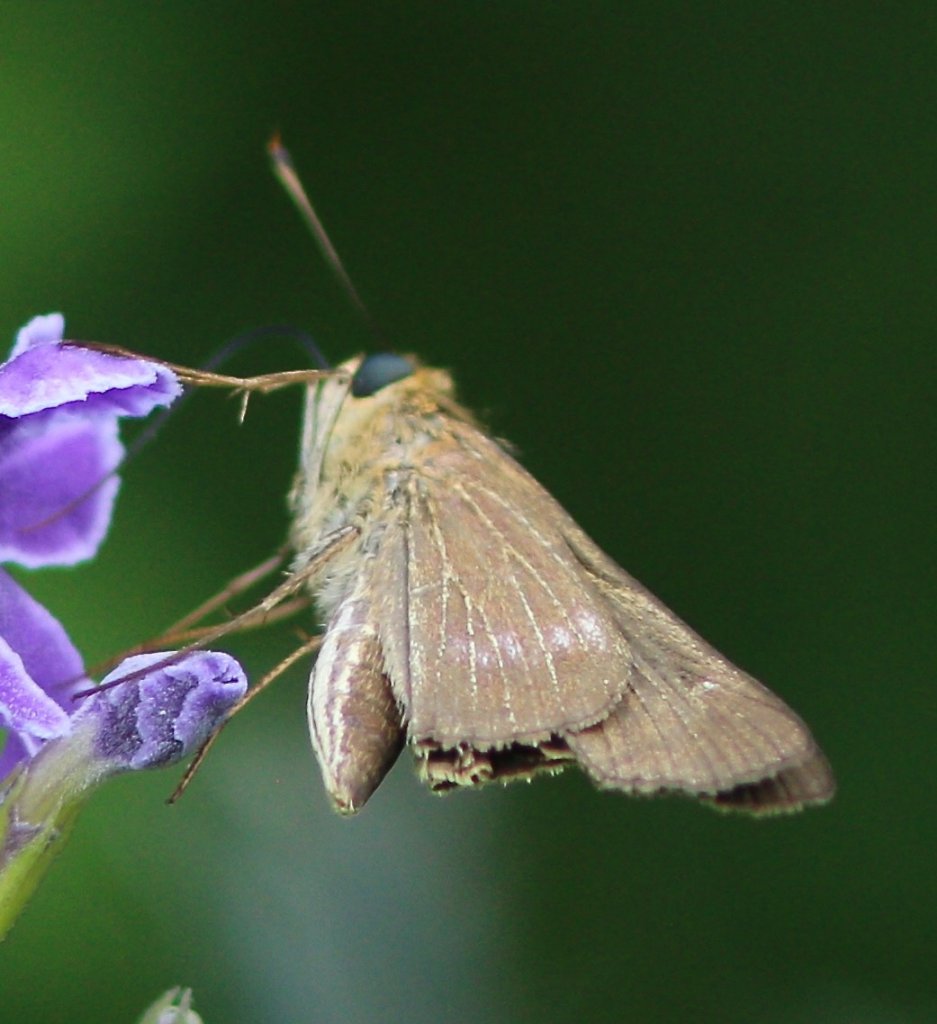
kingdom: Animalia
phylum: Arthropoda
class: Insecta
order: Lepidoptera
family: Hesperiidae
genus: Panoquina
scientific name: Panoquina ocola
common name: Ocola Skipper
